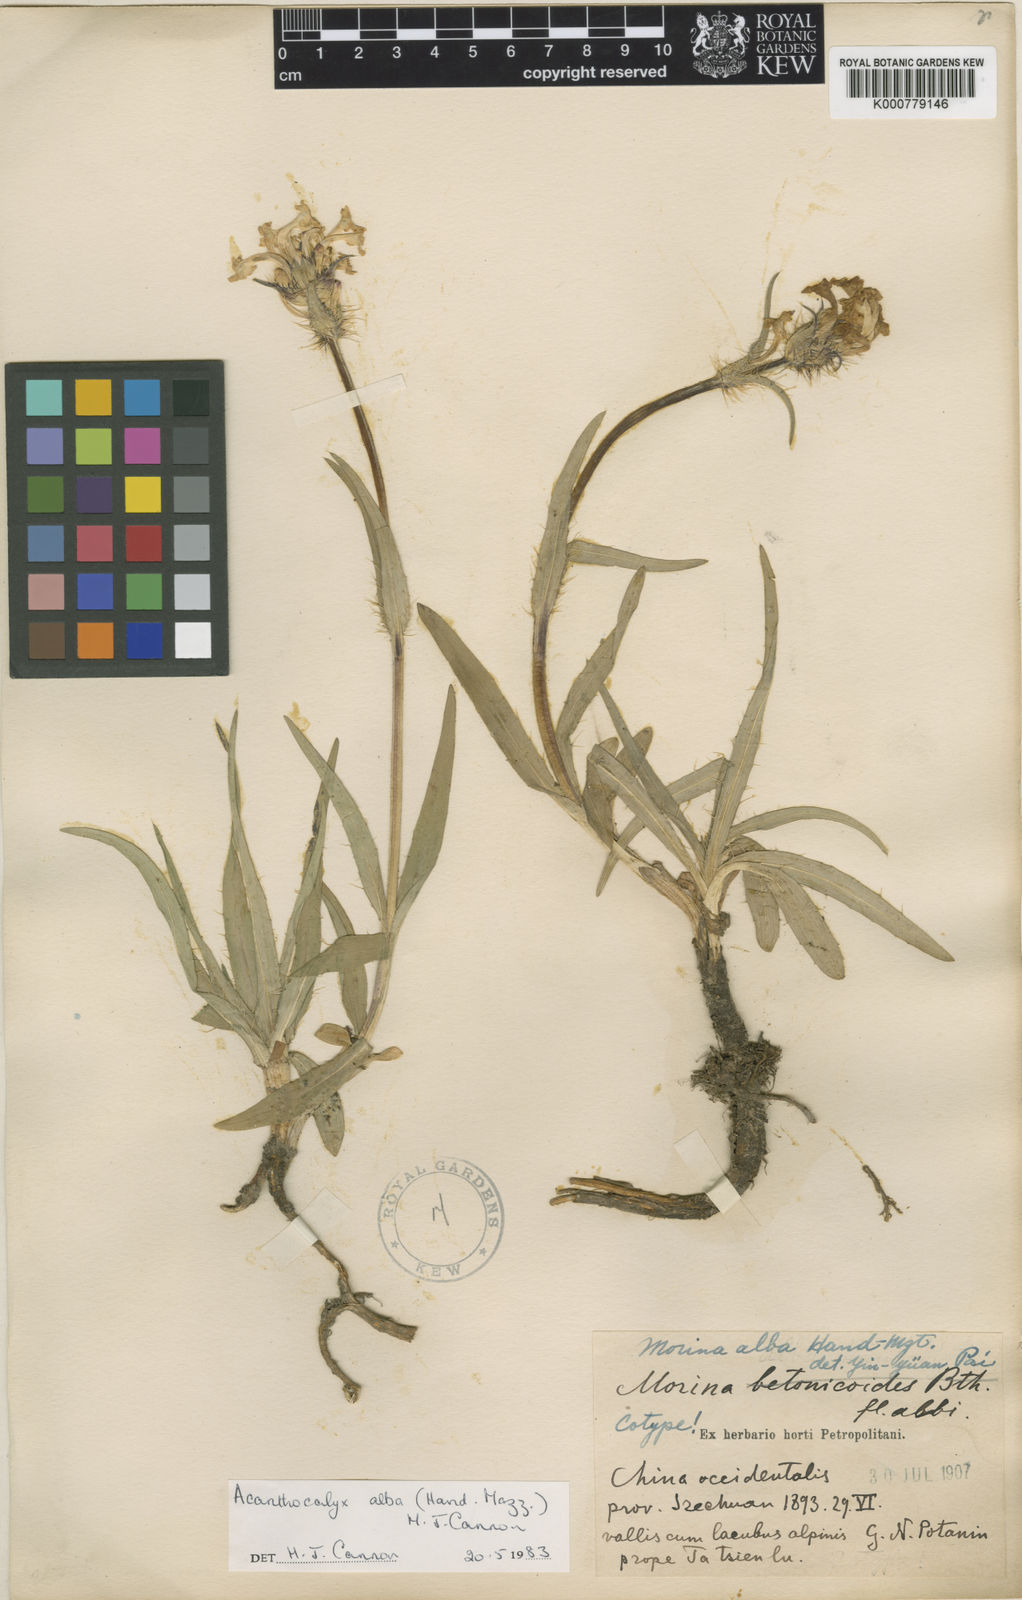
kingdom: Plantae
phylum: Tracheophyta
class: Magnoliopsida
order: Dipsacales
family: Caprifoliaceae
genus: Acanthocalyx
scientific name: Acanthocalyx alba
